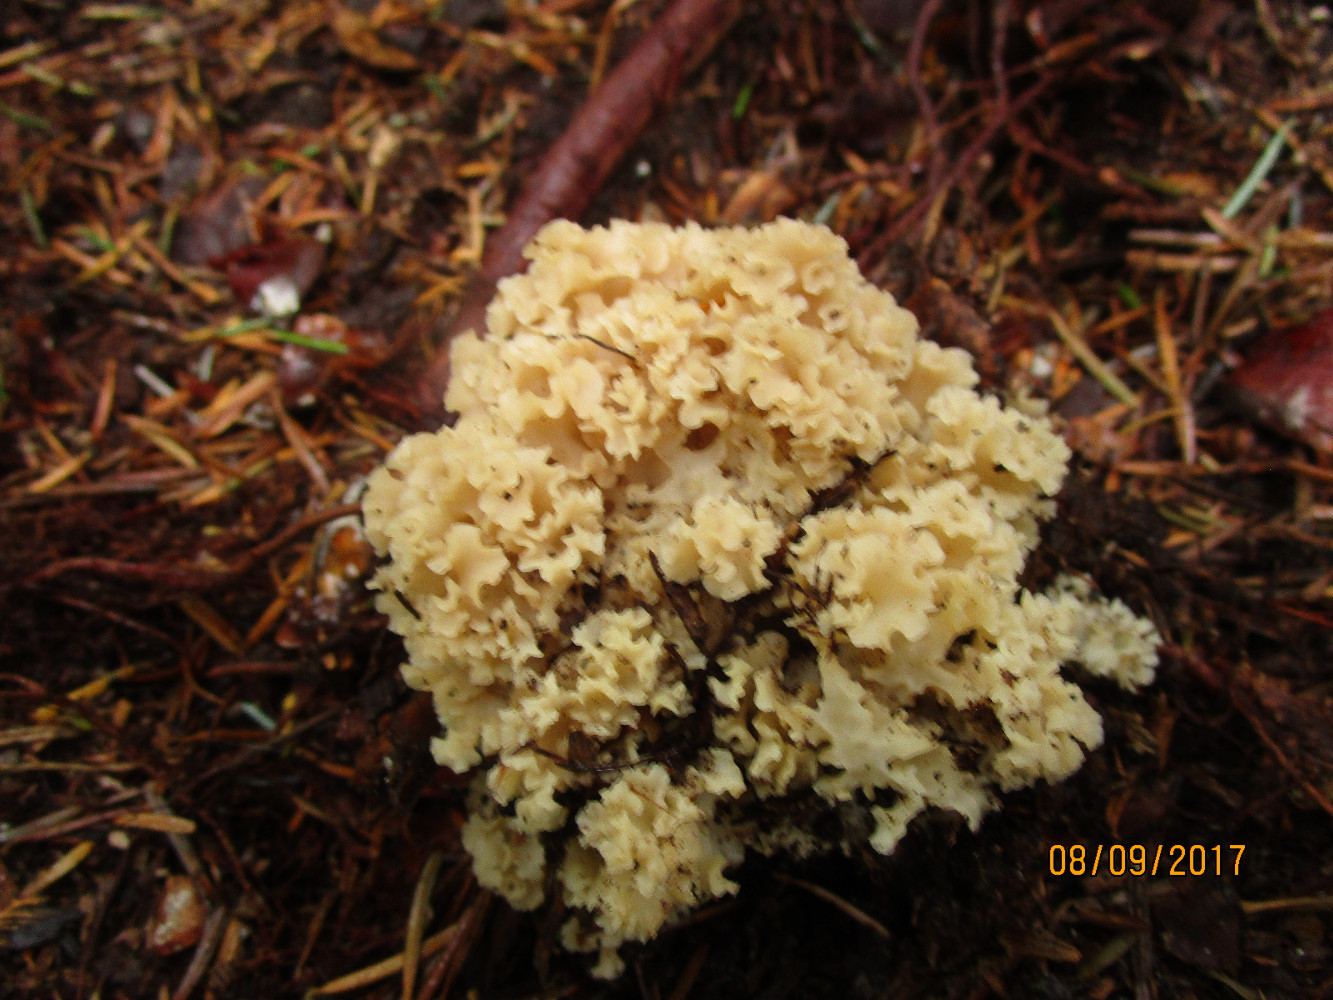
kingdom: Fungi
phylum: Basidiomycota
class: Agaricomycetes
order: Polyporales
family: Sparassidaceae
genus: Sparassis
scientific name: Sparassis crispa
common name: kruset blomkålssvamp
